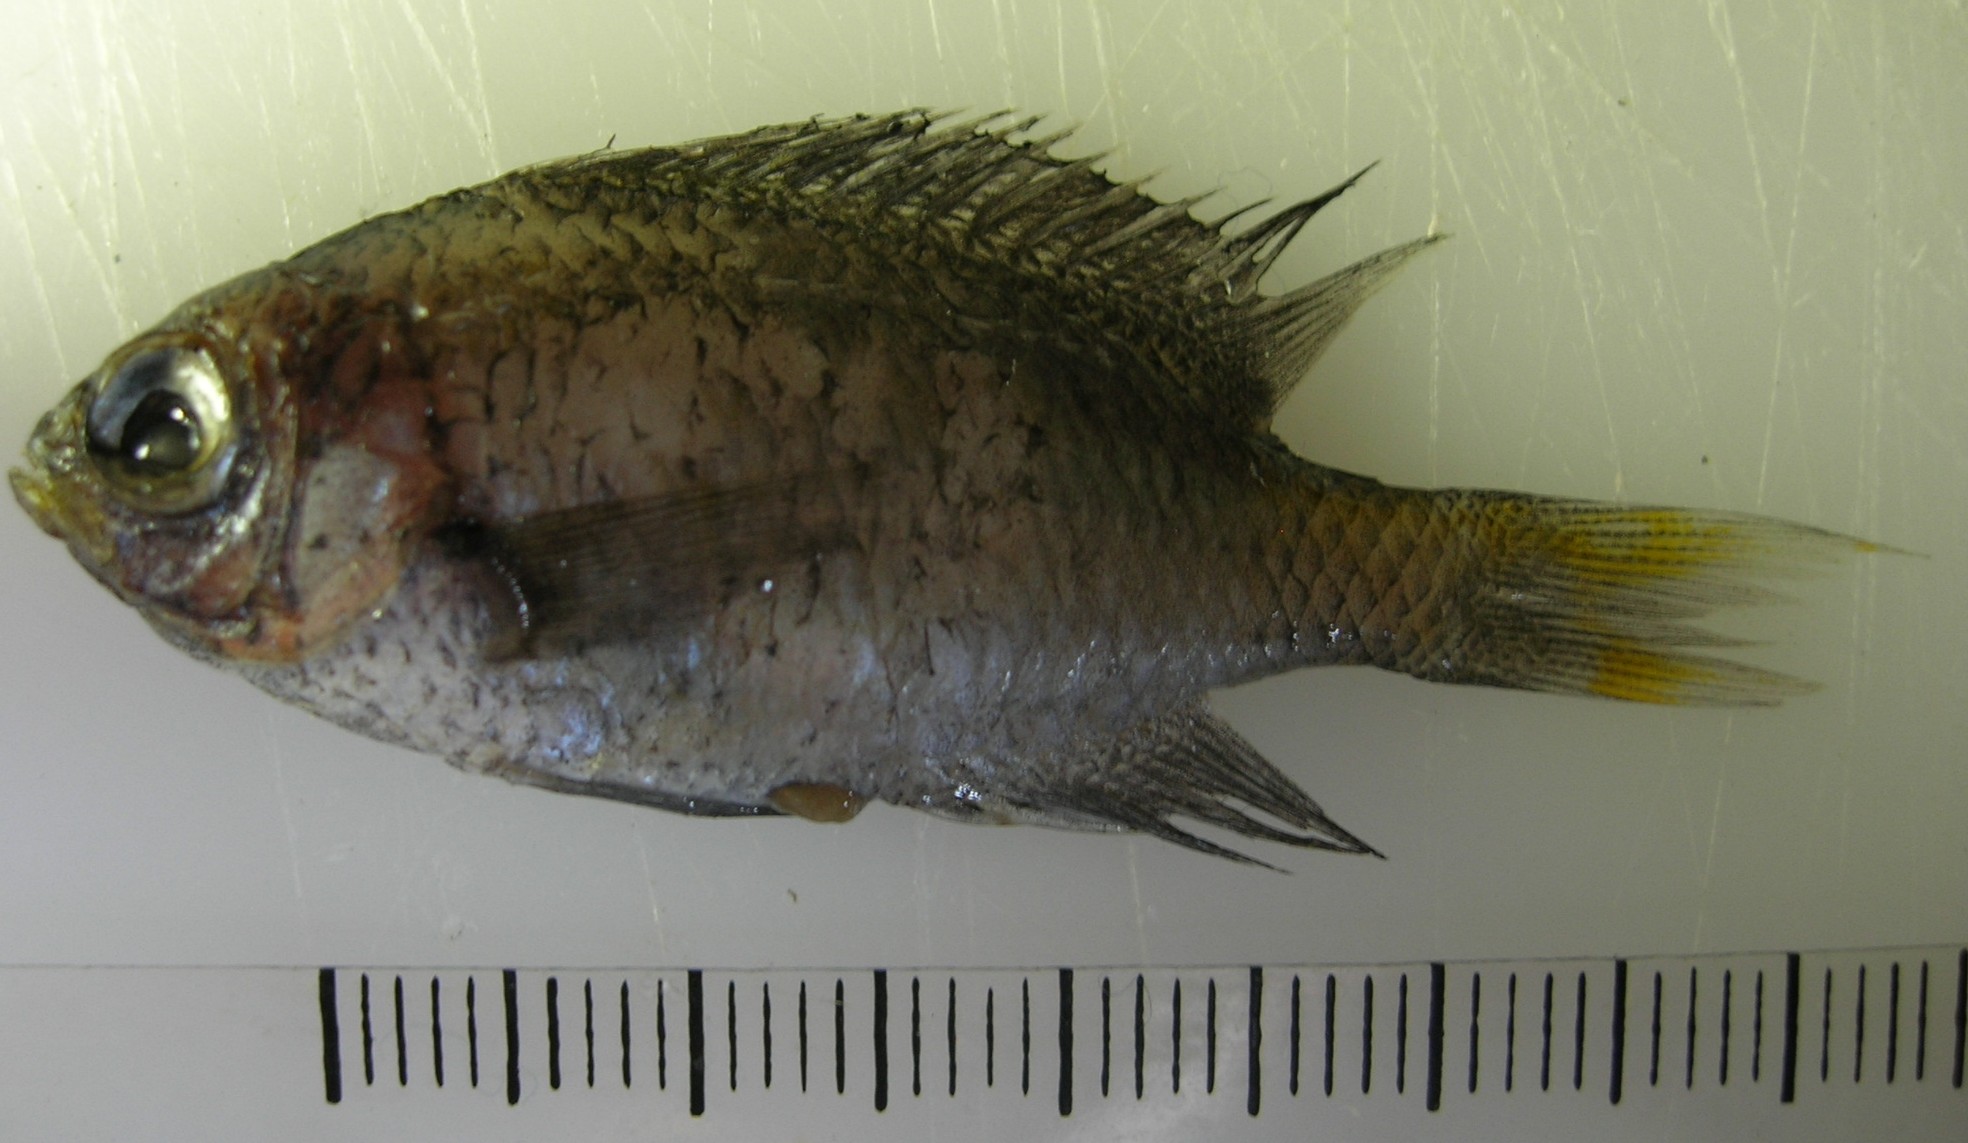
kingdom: Animalia
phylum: Chordata
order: Perciformes
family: Pomacentridae
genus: Chromis
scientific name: Chromis dasygenys
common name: Blue-spotted chromis
